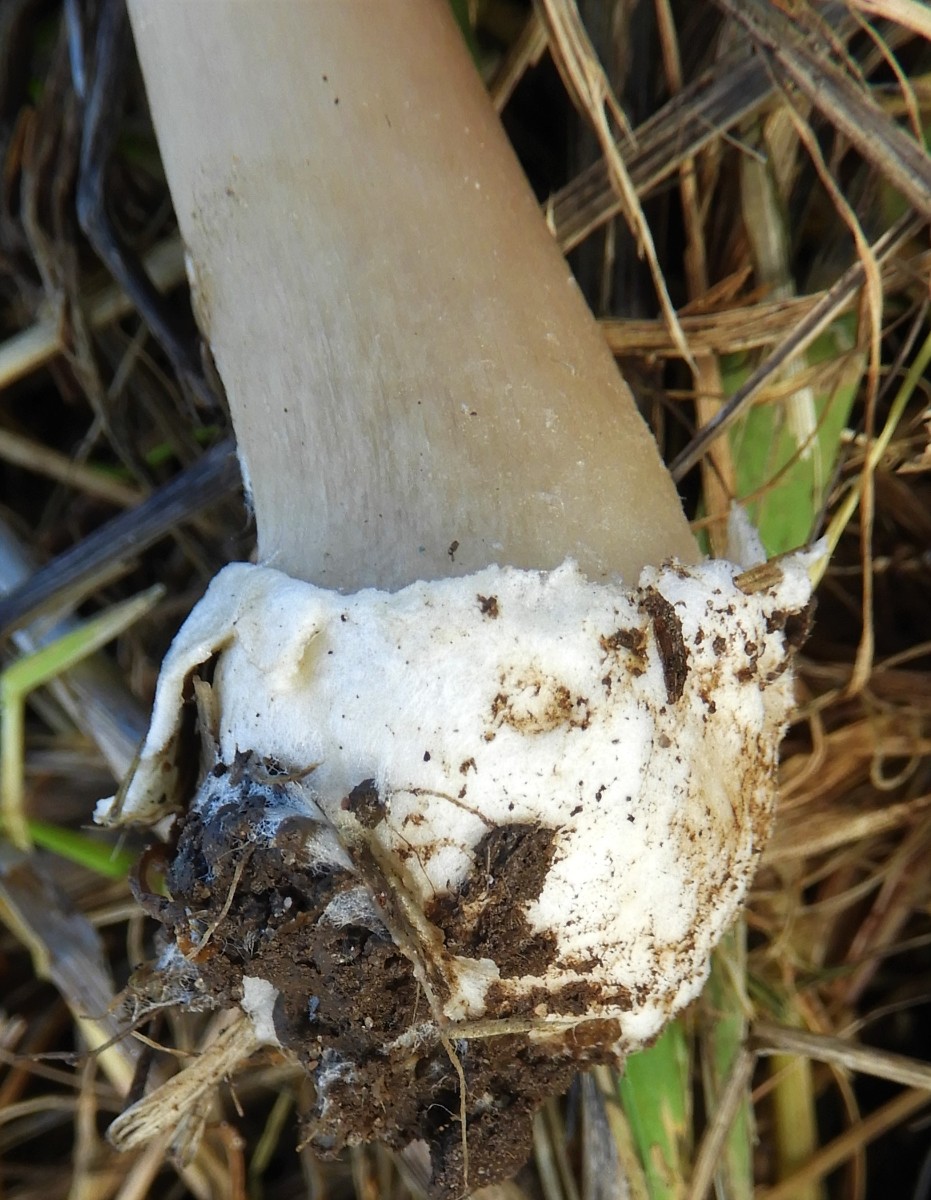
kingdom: Fungi
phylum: Basidiomycota
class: Agaricomycetes
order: Agaricales
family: Pluteaceae
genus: Volvopluteus
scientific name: Volvopluteus gloiocephalus
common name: høj posesvamp
